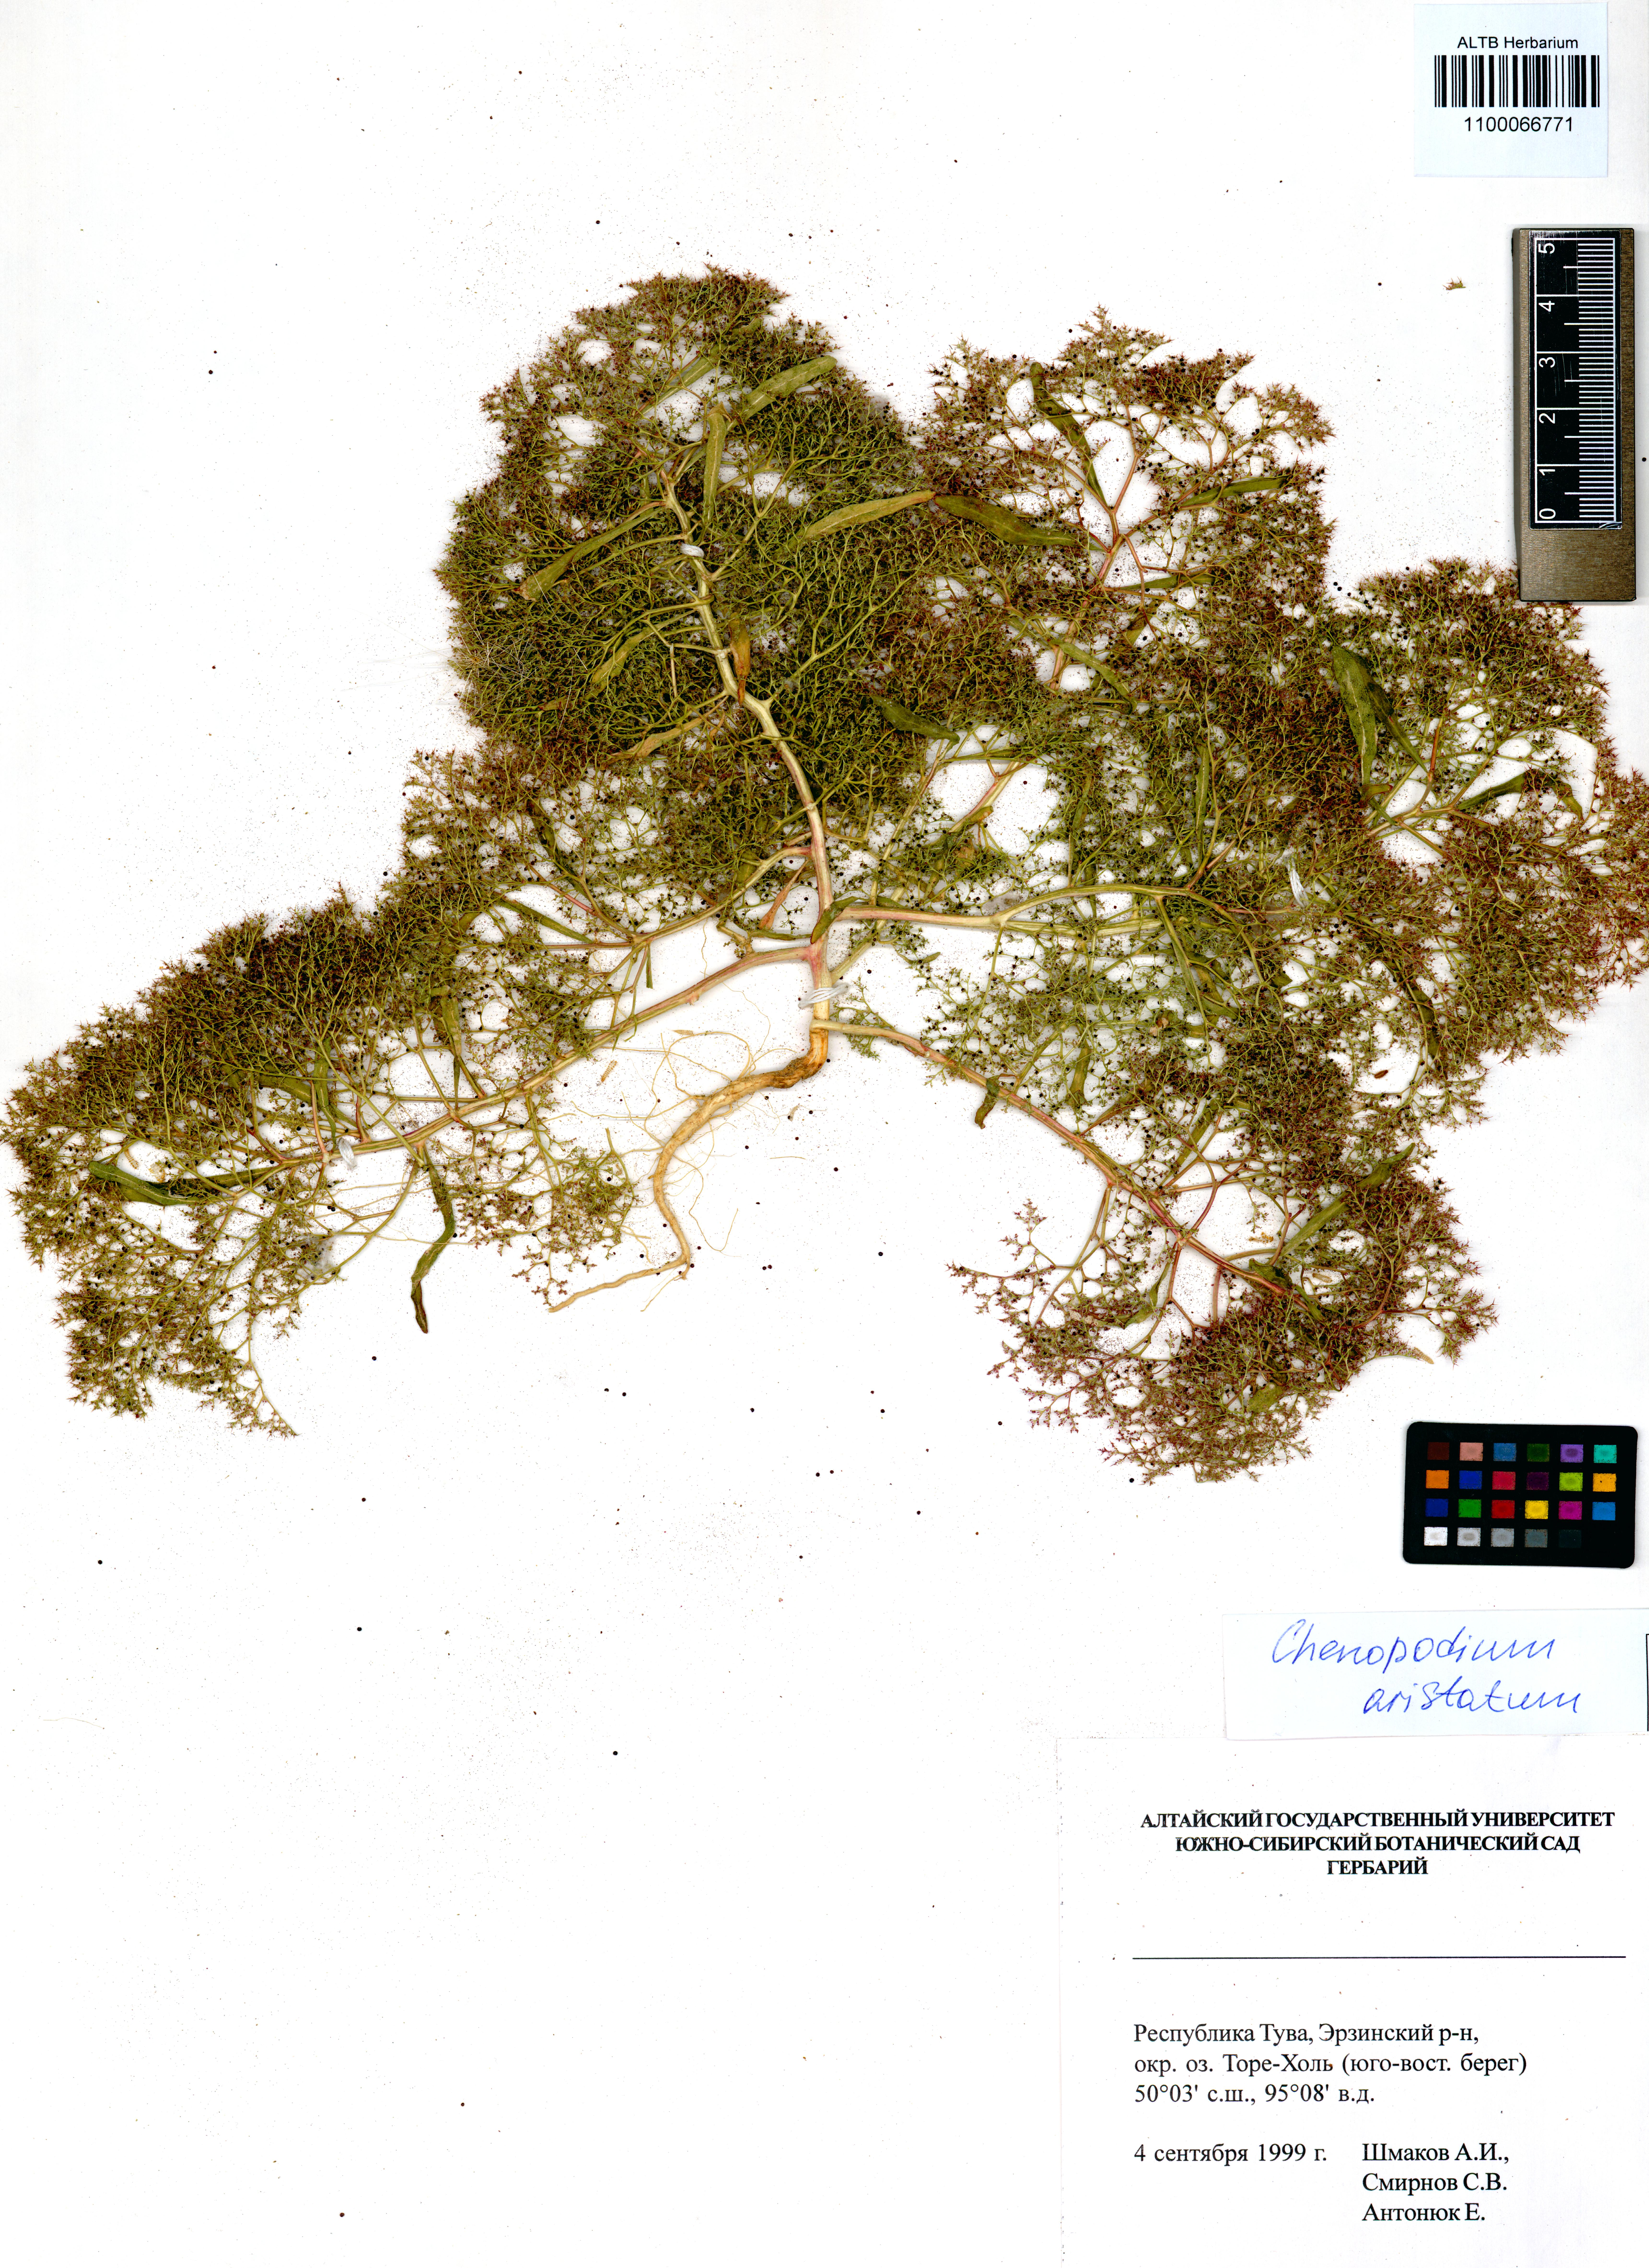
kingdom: Plantae
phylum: Tracheophyta
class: Magnoliopsida
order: Caryophyllales
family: Amaranthaceae
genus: Teloxys
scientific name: Teloxys aristata
